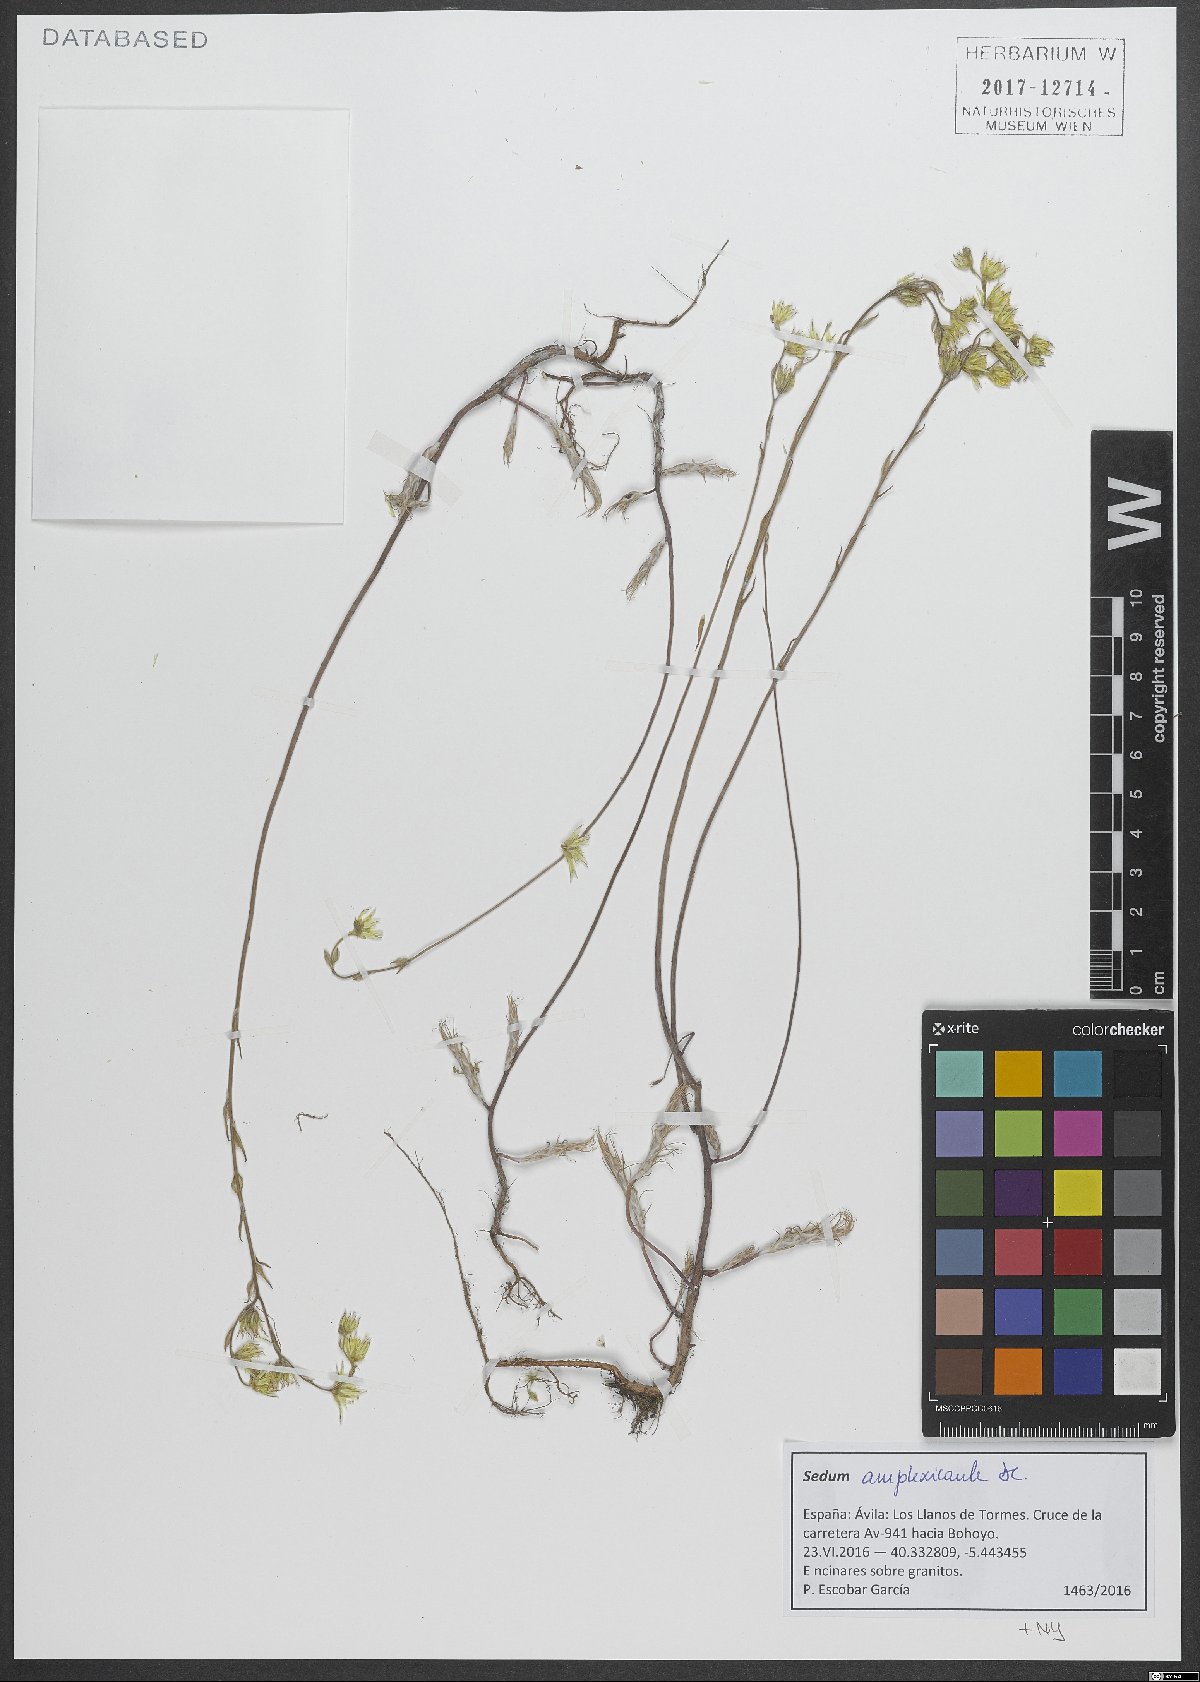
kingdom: Plantae
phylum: Tracheophyta
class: Magnoliopsida
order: Saxifragales
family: Crassulaceae
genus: Petrosedum
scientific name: Petrosedum amplexicaule
